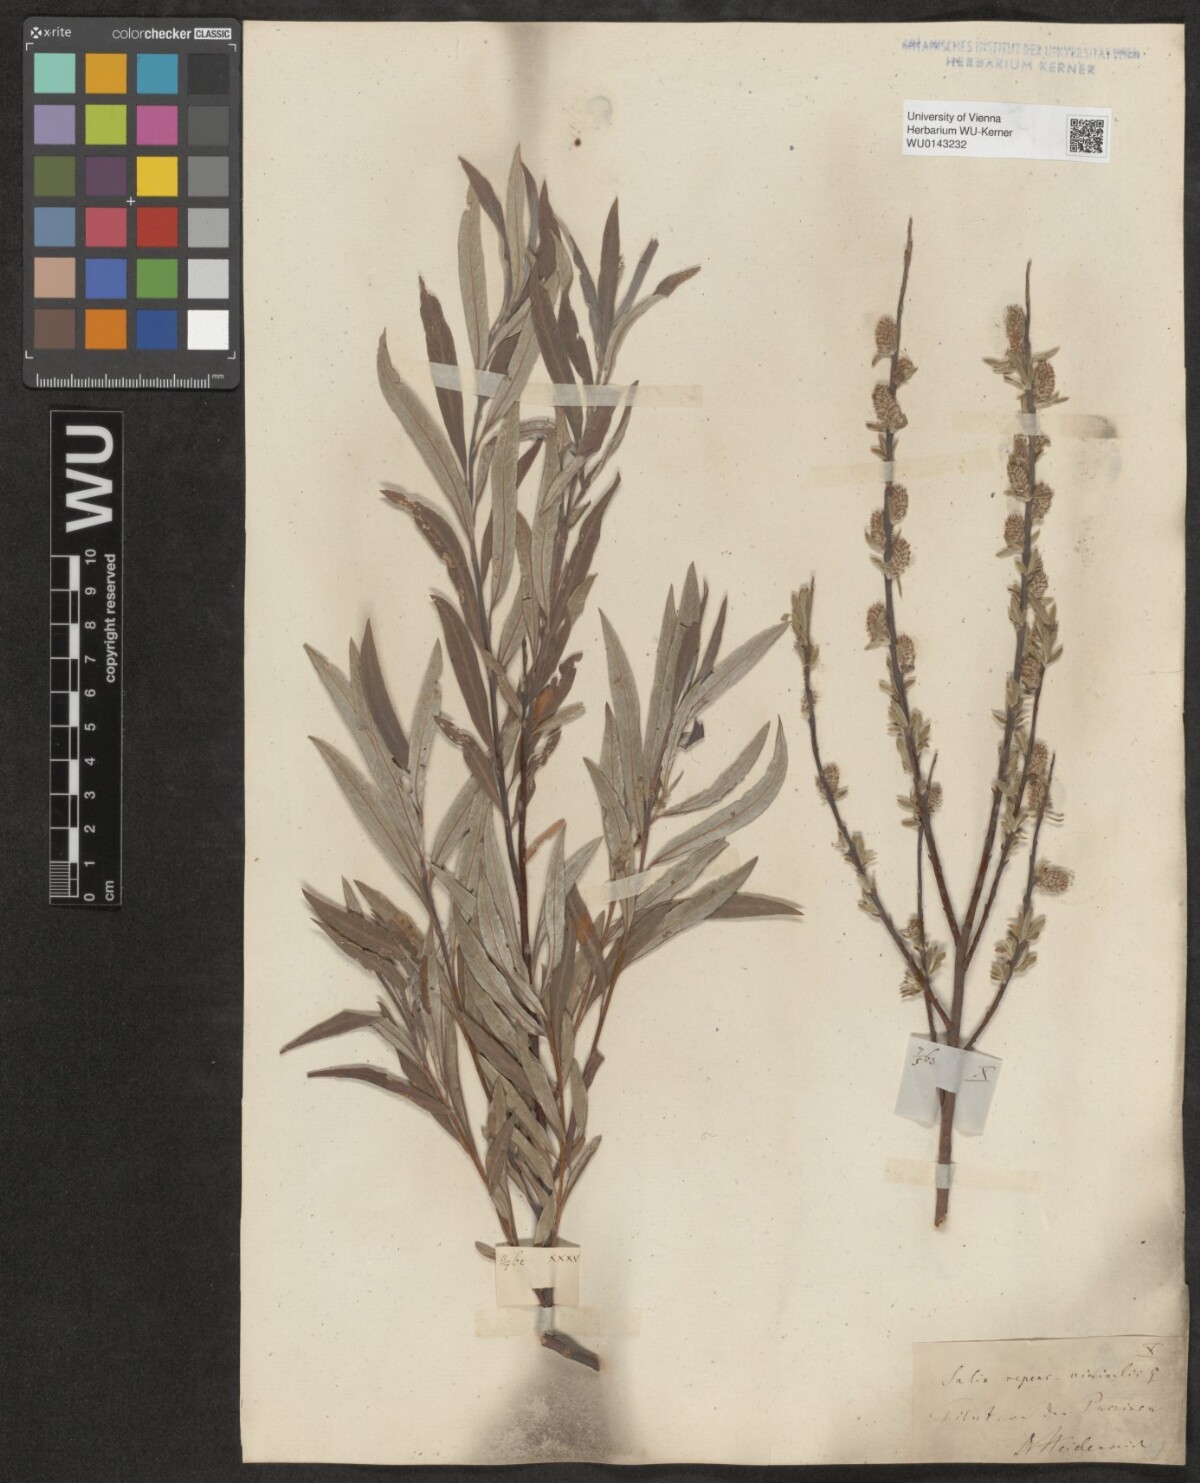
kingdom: Plantae
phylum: Tracheophyta
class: Magnoliopsida
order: Malpighiales
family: Salicaceae
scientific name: Salicaceae
